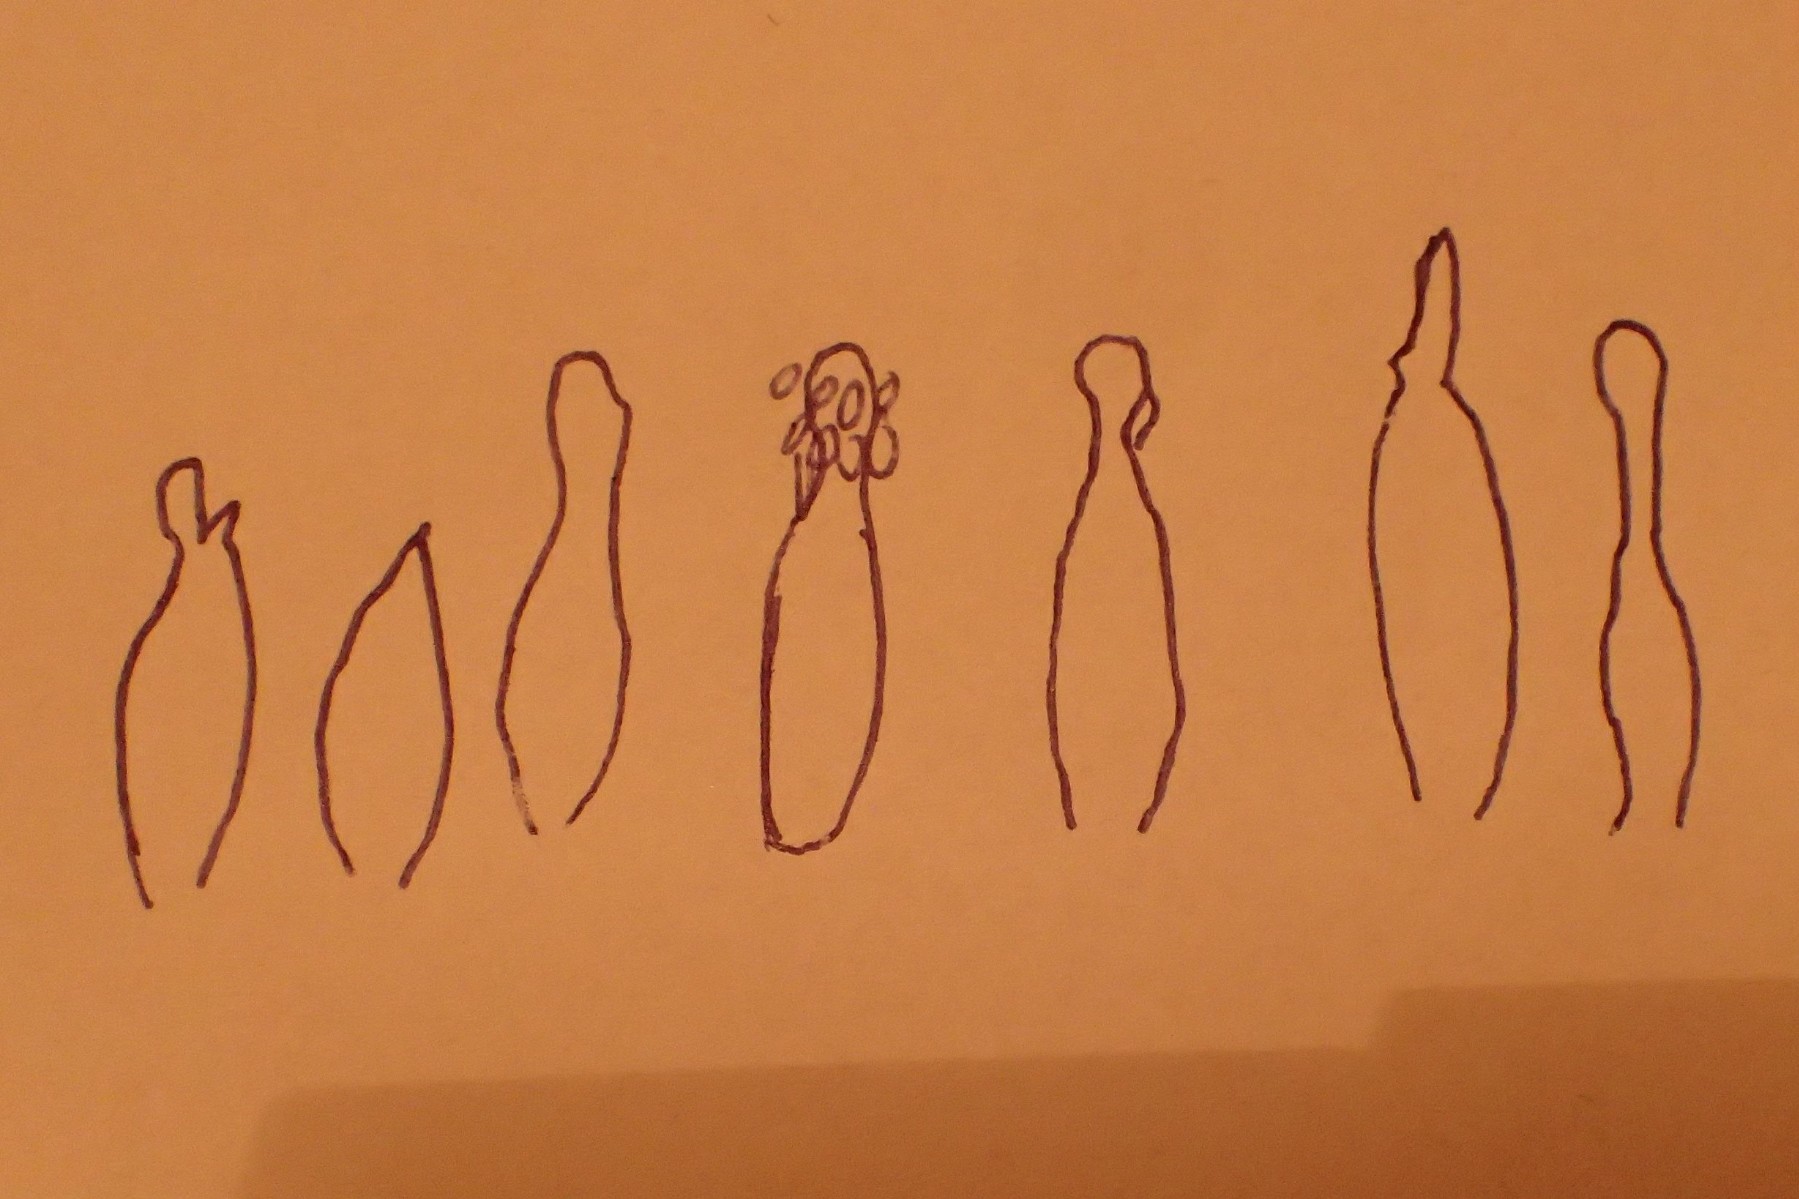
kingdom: Fungi
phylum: Basidiomycota
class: Agaricomycetes
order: Agaricales
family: Mycenaceae
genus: Mycena
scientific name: Mycena galopus
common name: hvidmælket huesvamp
